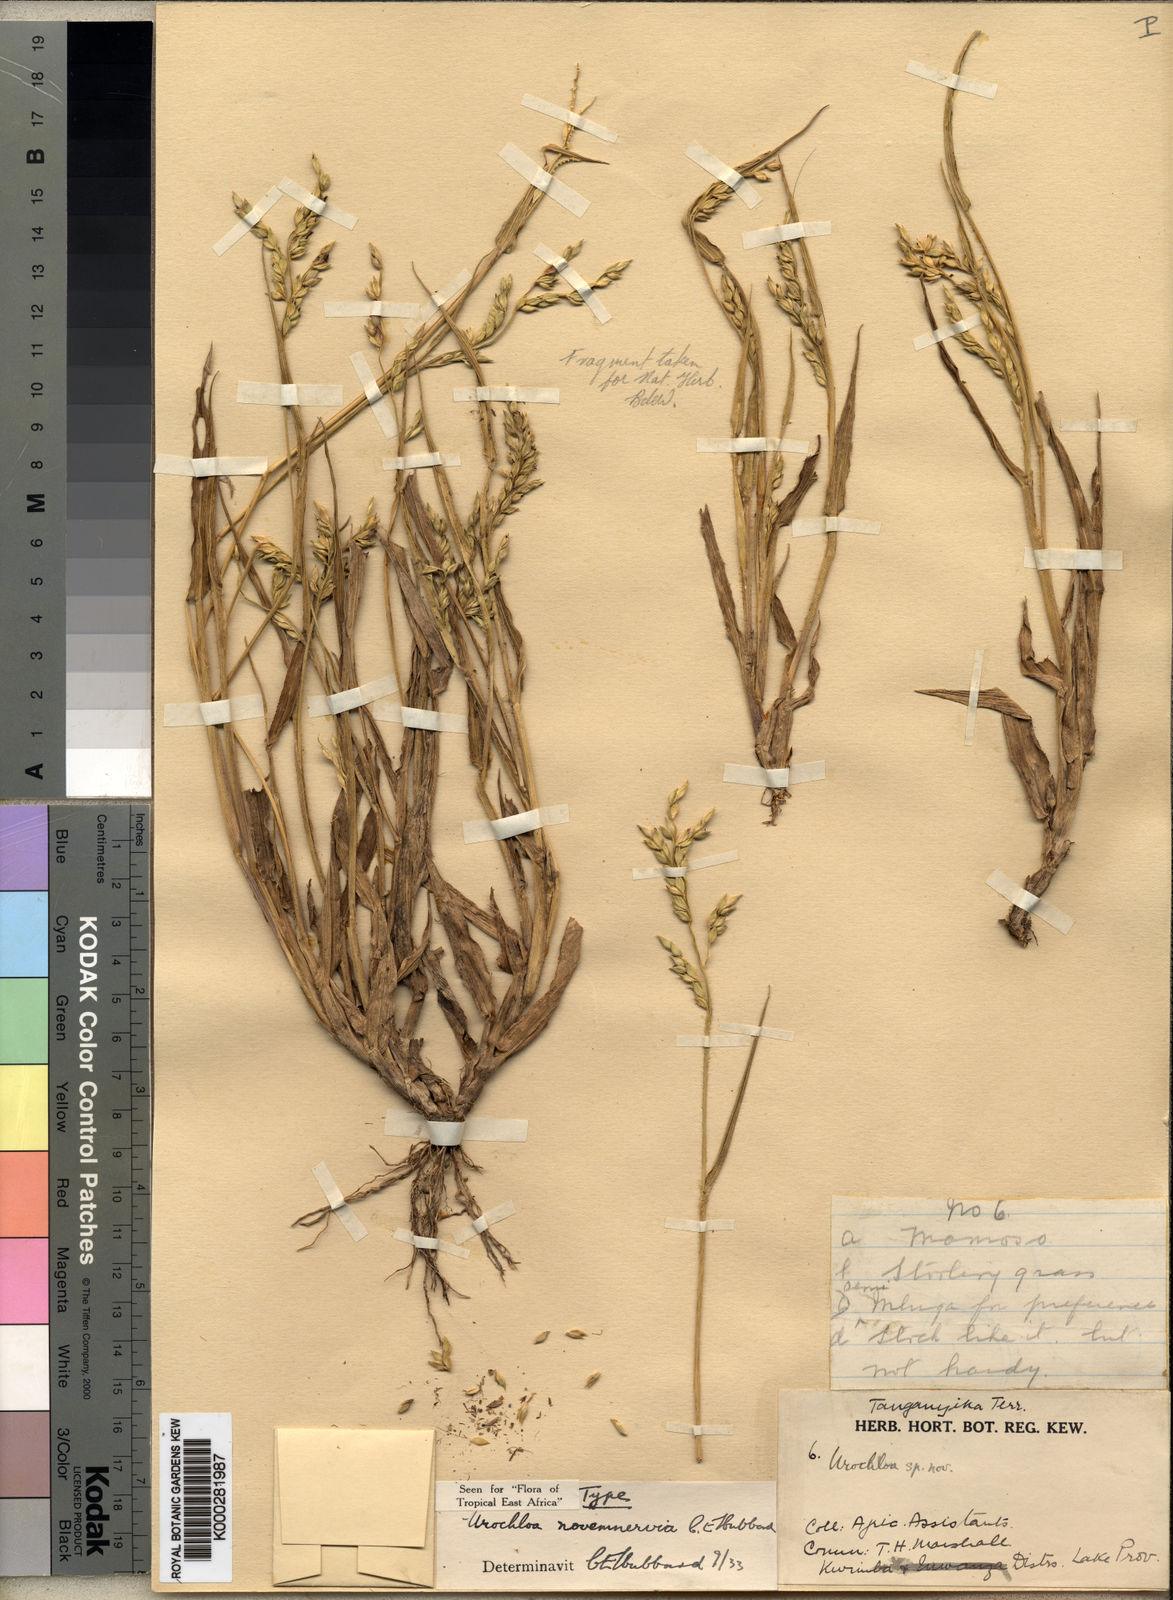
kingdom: Plantae
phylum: Tracheophyta
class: Liliopsida
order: Poales
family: Poaceae
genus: Urochloa
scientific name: Urochloa brachyura
